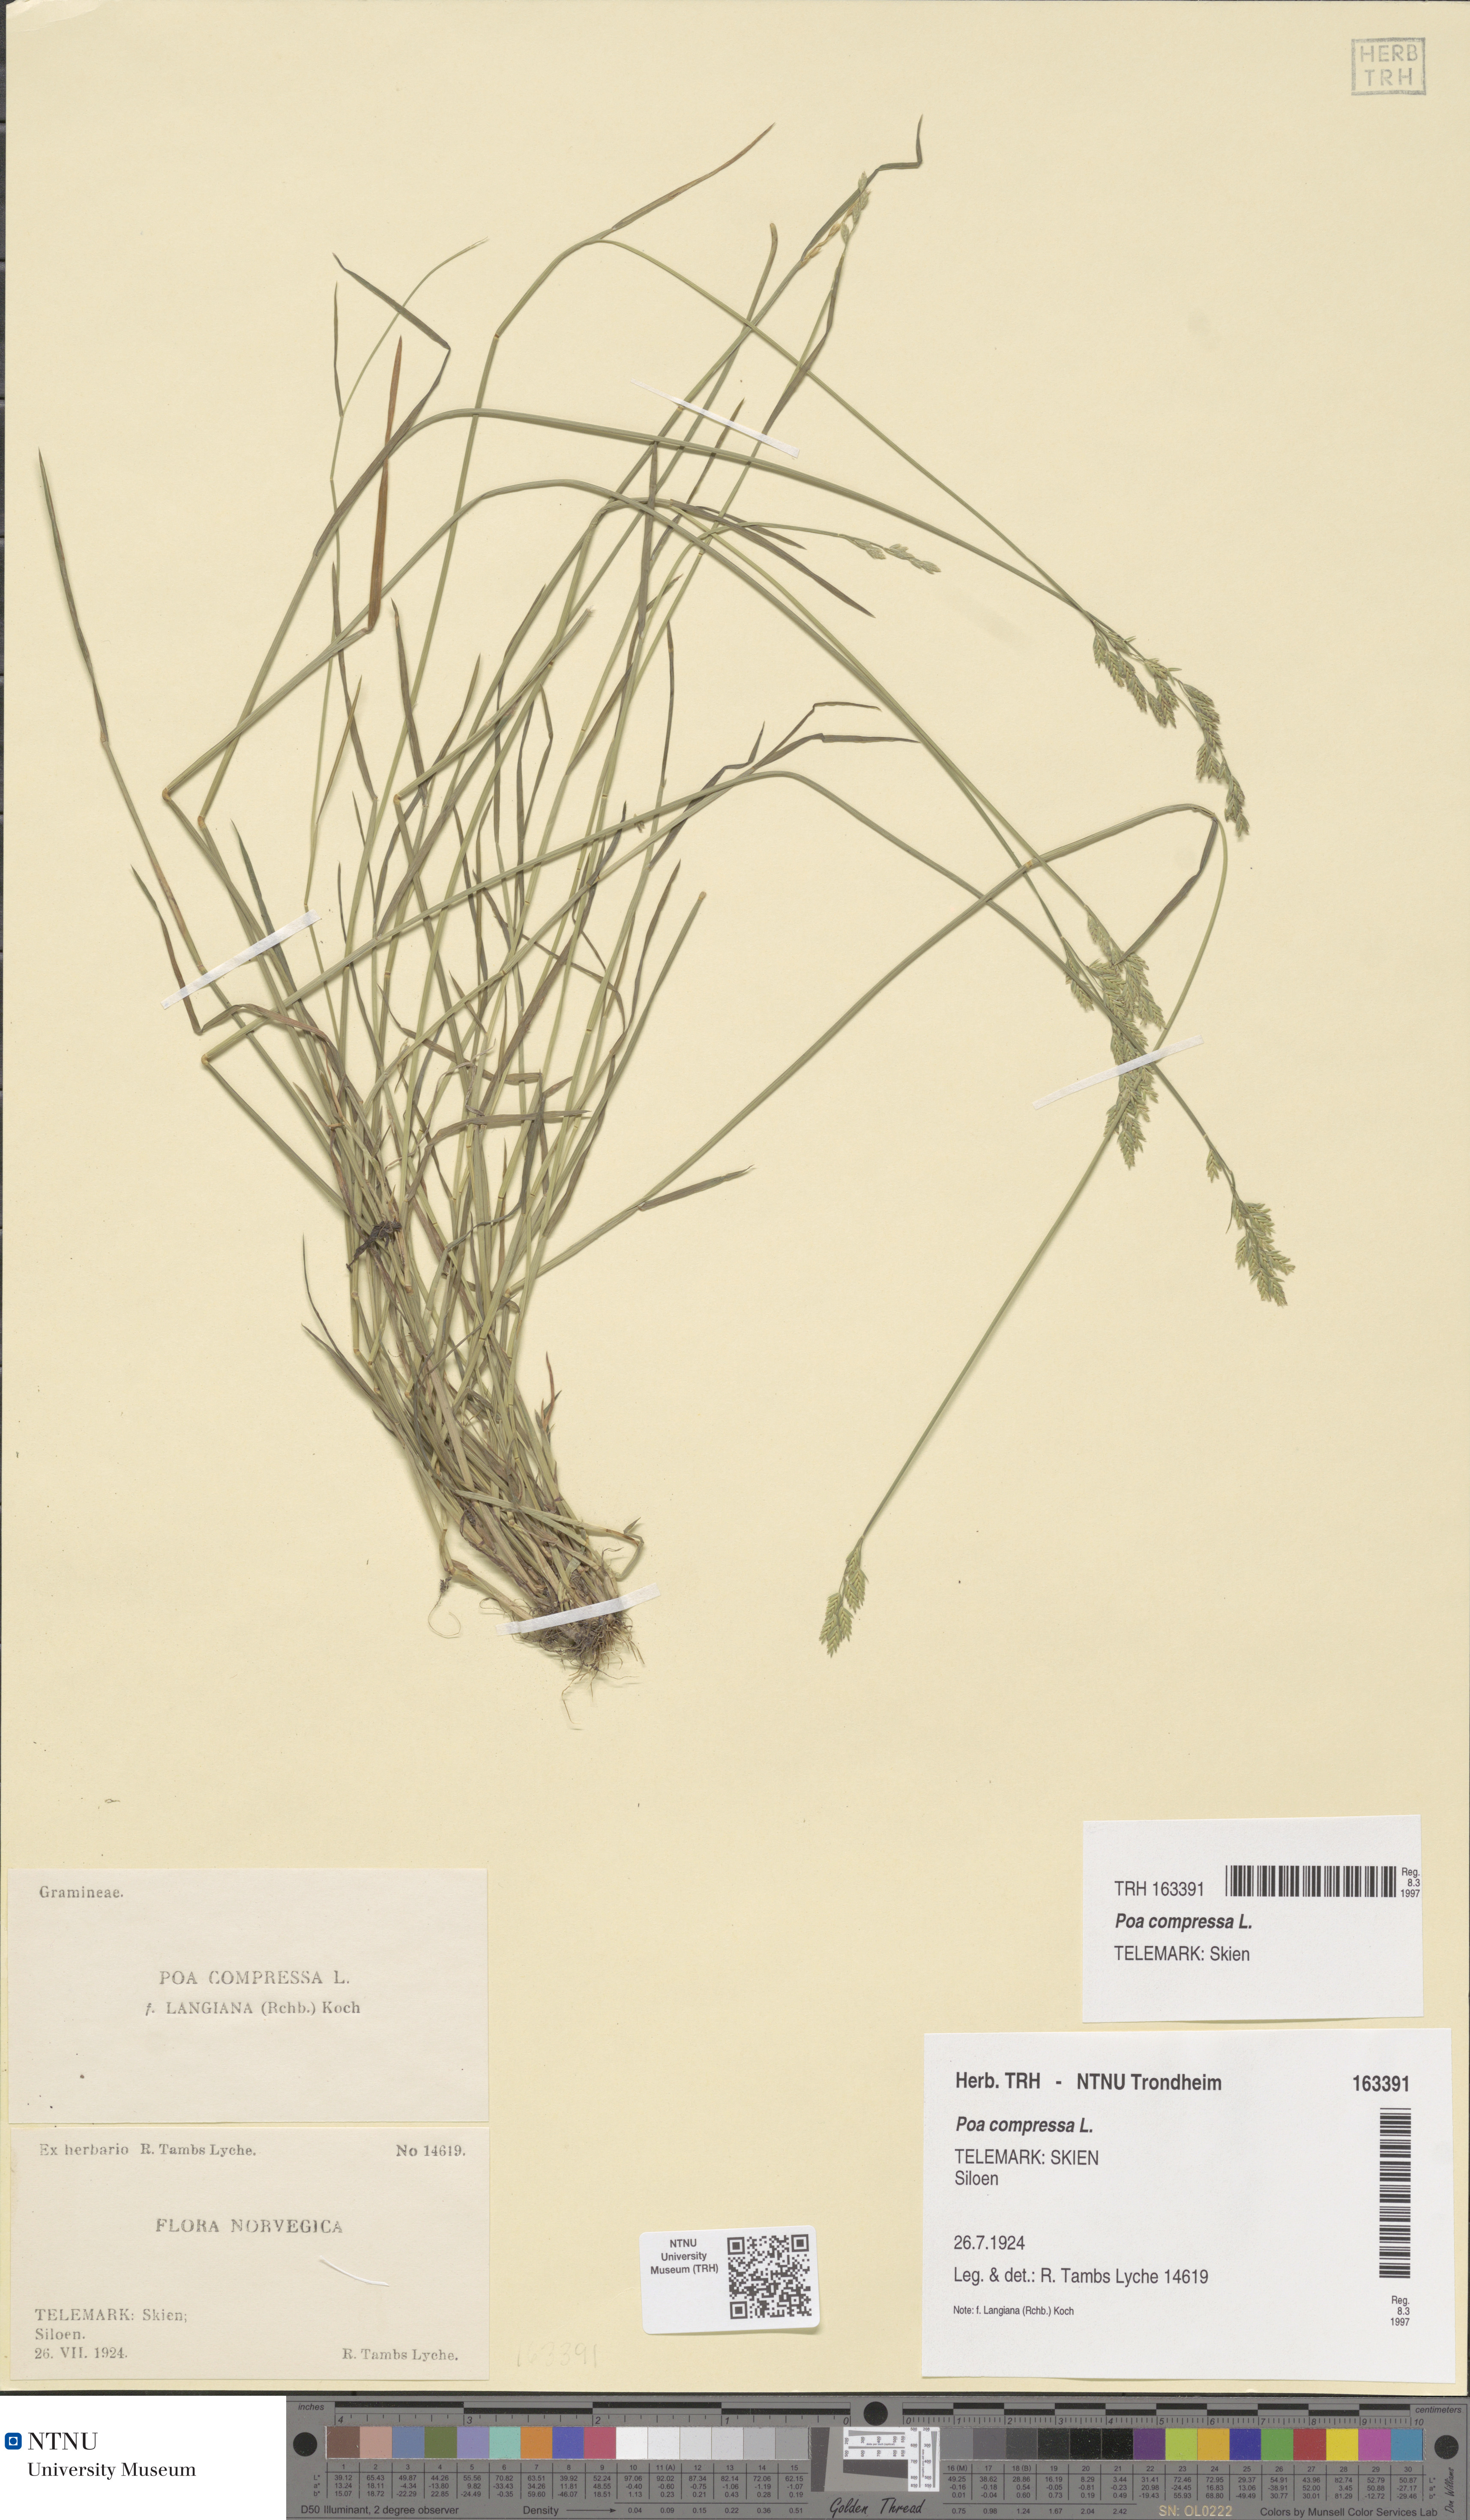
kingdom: Plantae
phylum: Tracheophyta
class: Liliopsida
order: Poales
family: Poaceae
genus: Poa
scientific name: Poa compressa
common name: Canada bluegrass
